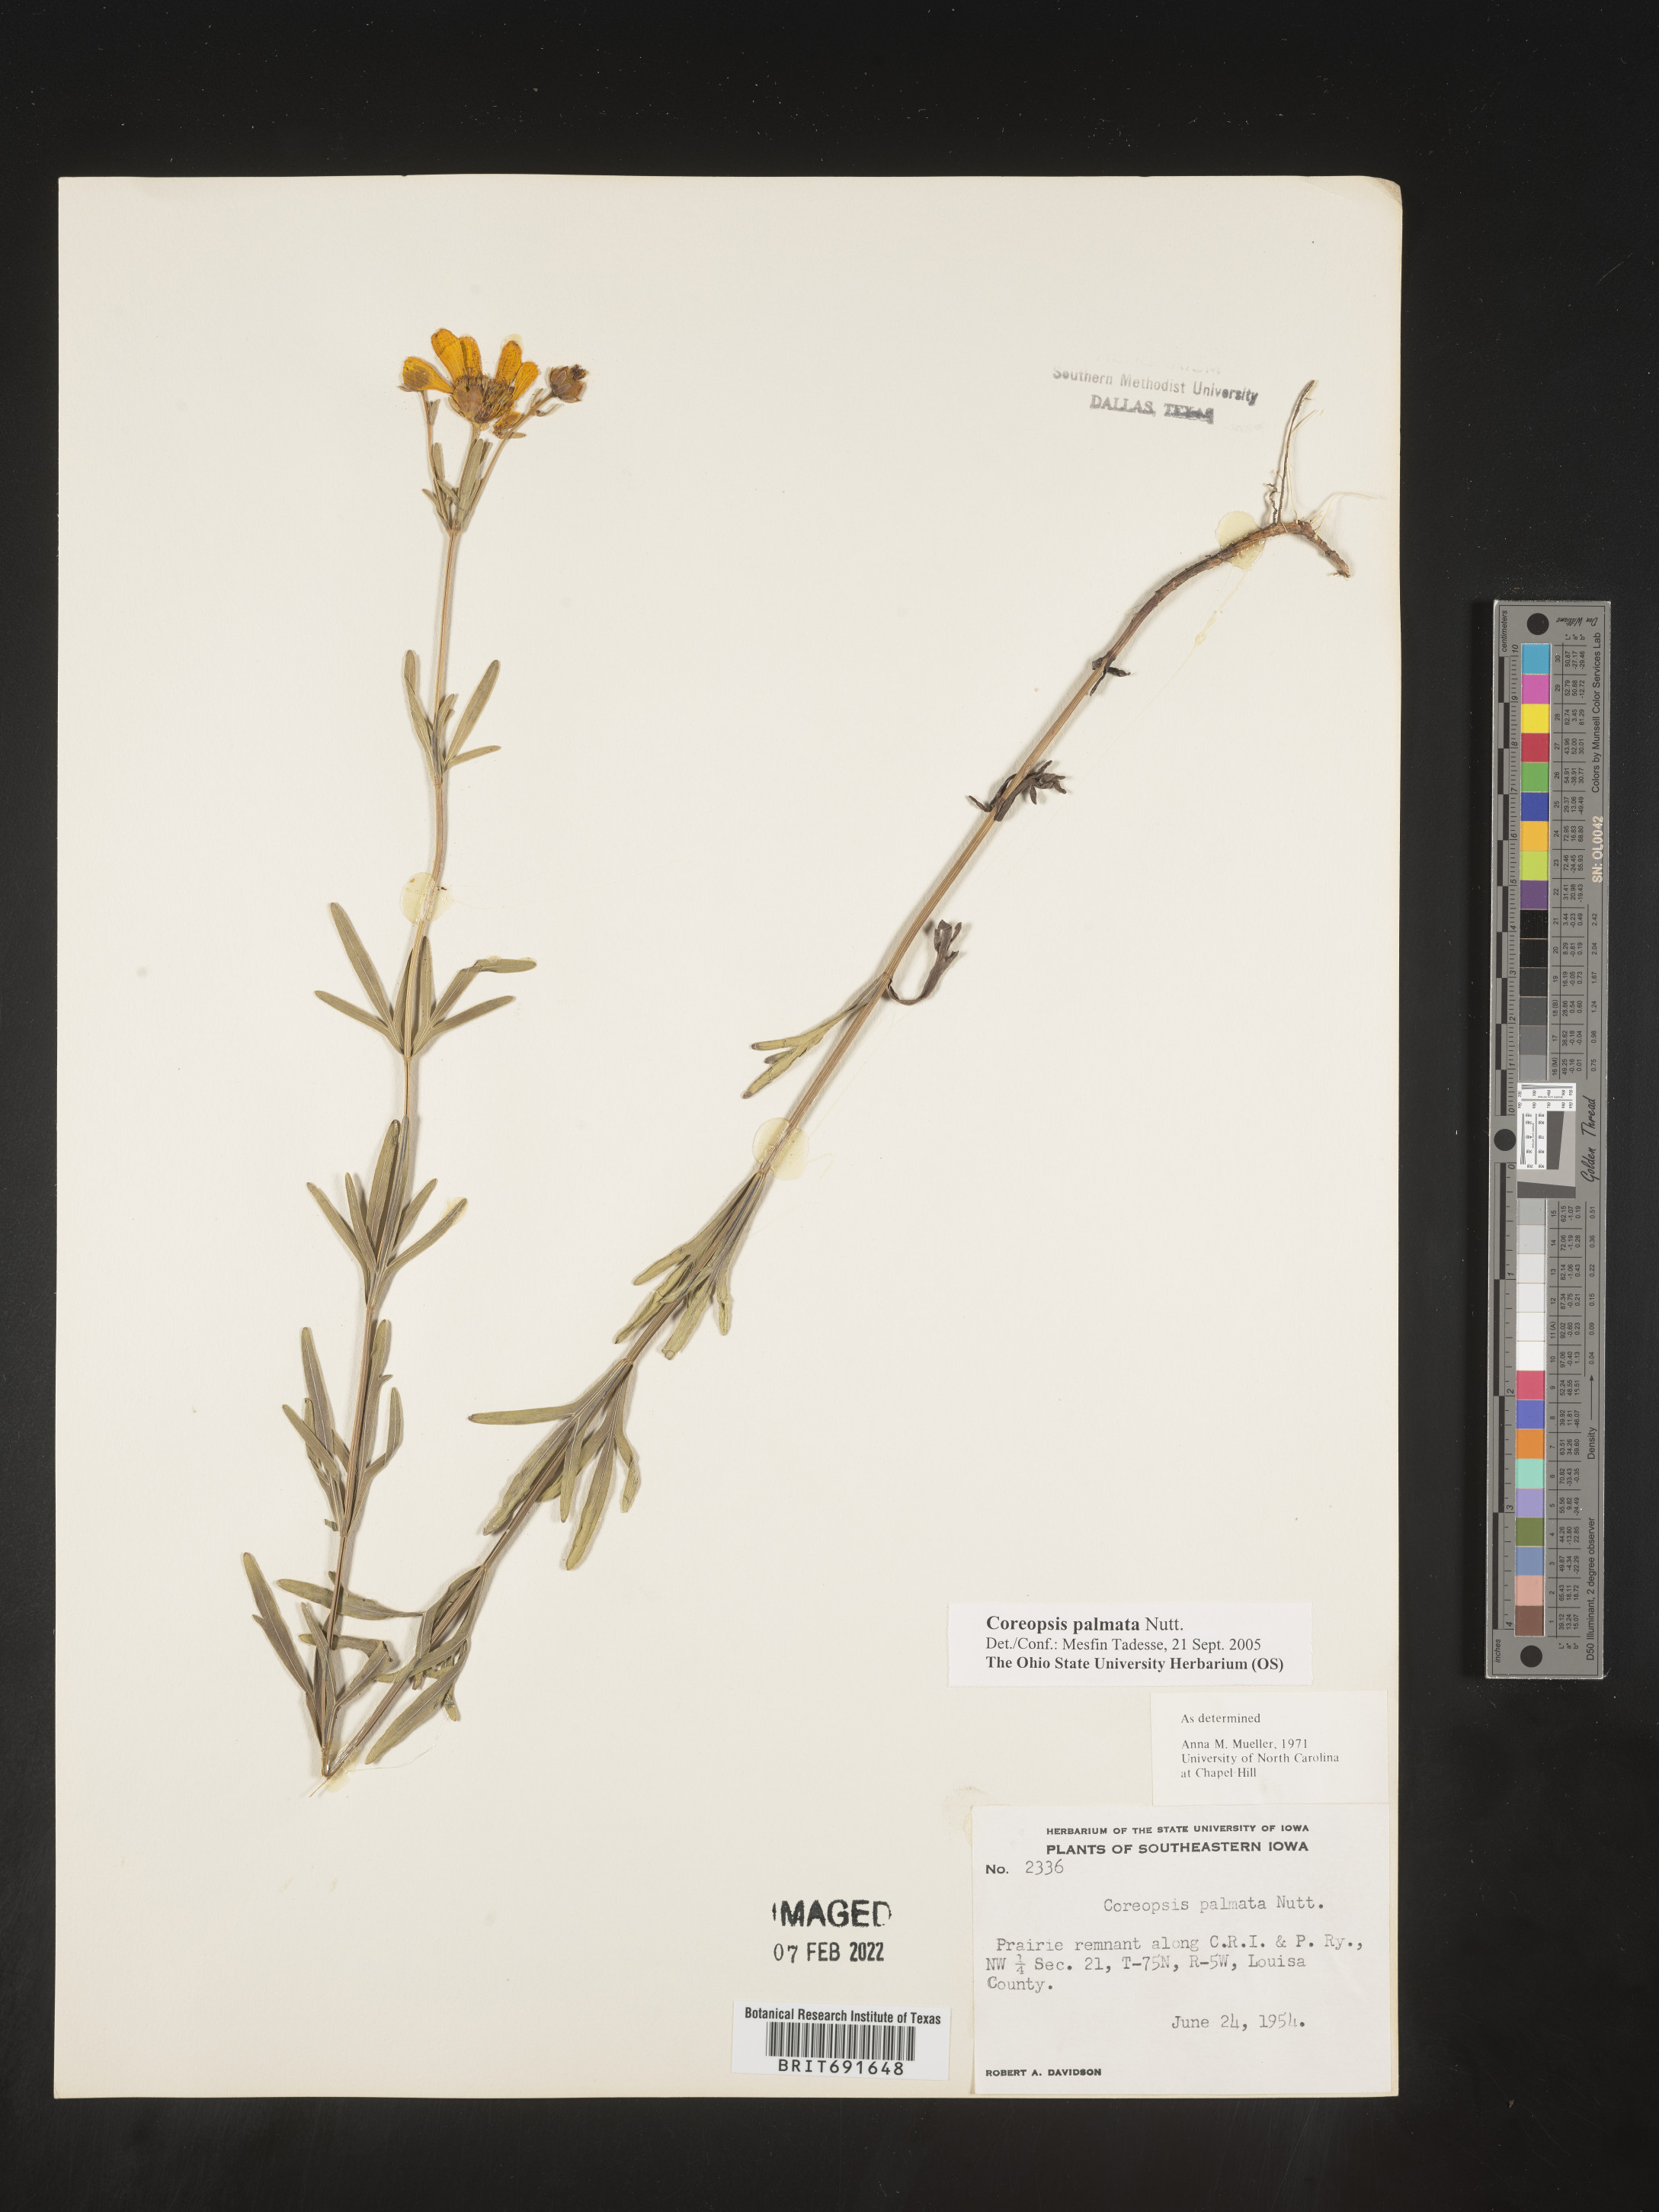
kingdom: Plantae
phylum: Tracheophyta
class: Magnoliopsida
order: Asterales
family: Asteraceae
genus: Coreopsis
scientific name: Coreopsis palmata
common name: Prairie coreopsis
